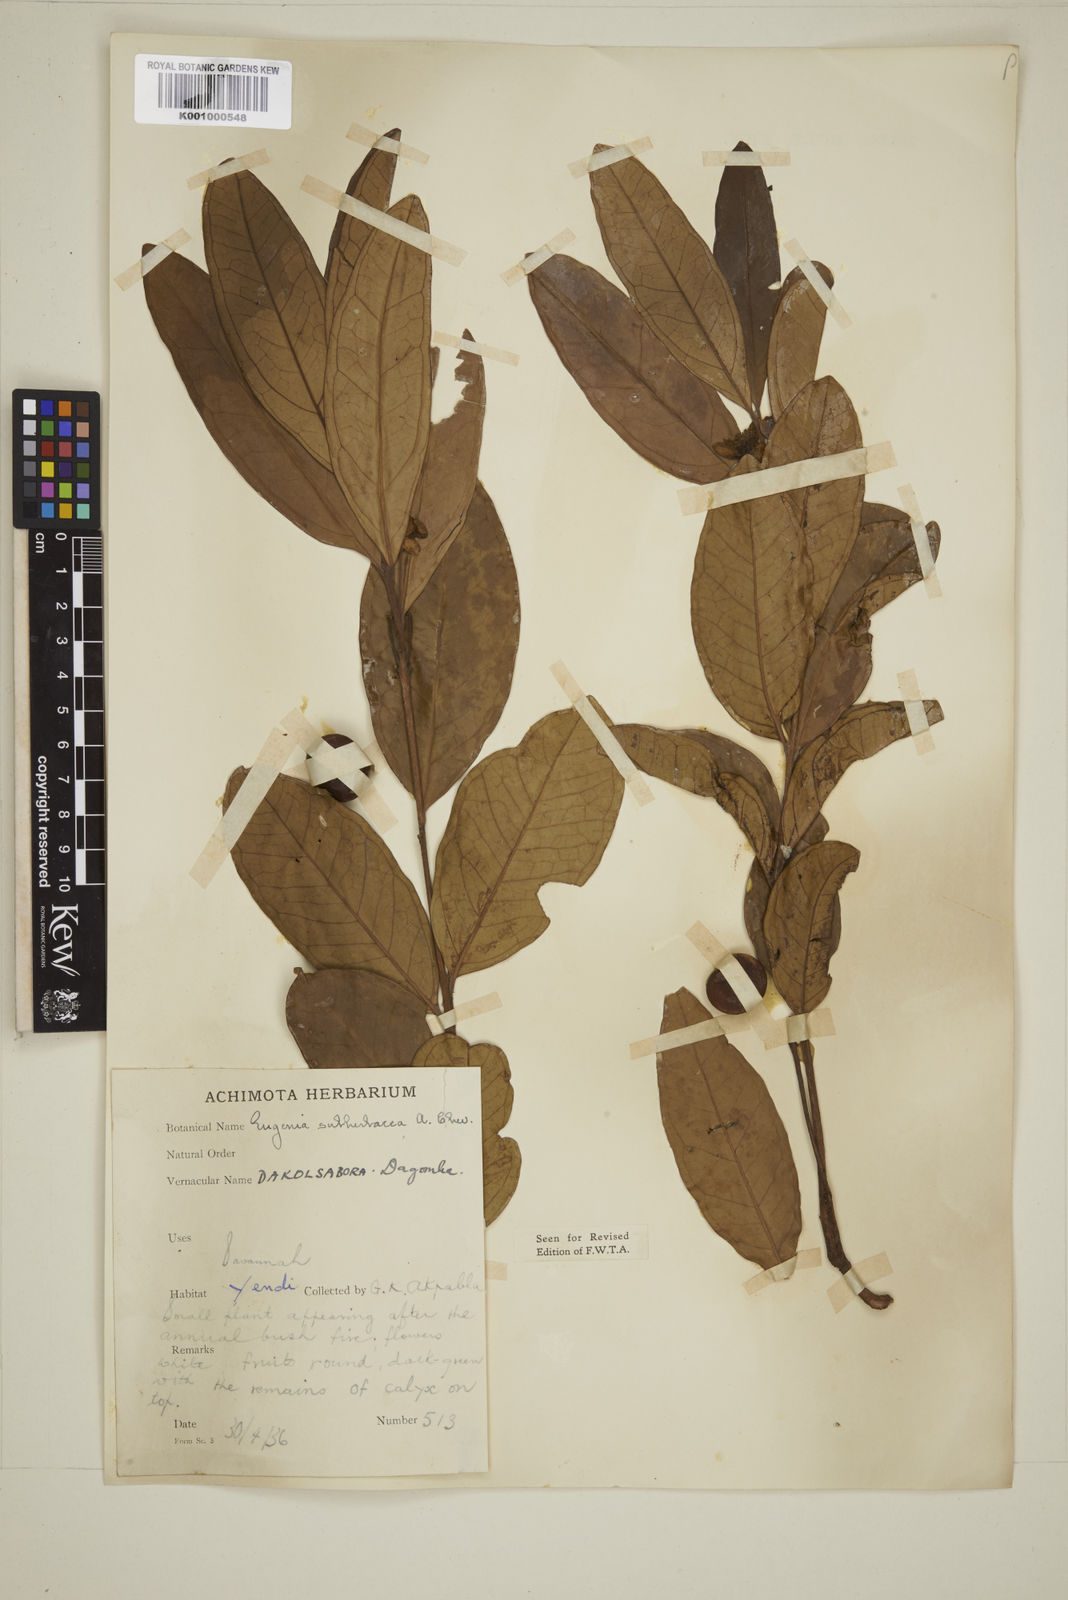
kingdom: Plantae
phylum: Tracheophyta
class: Magnoliopsida
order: Myrtales
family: Myrtaceae
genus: Eugenia
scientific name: Eugenia subherbacea
